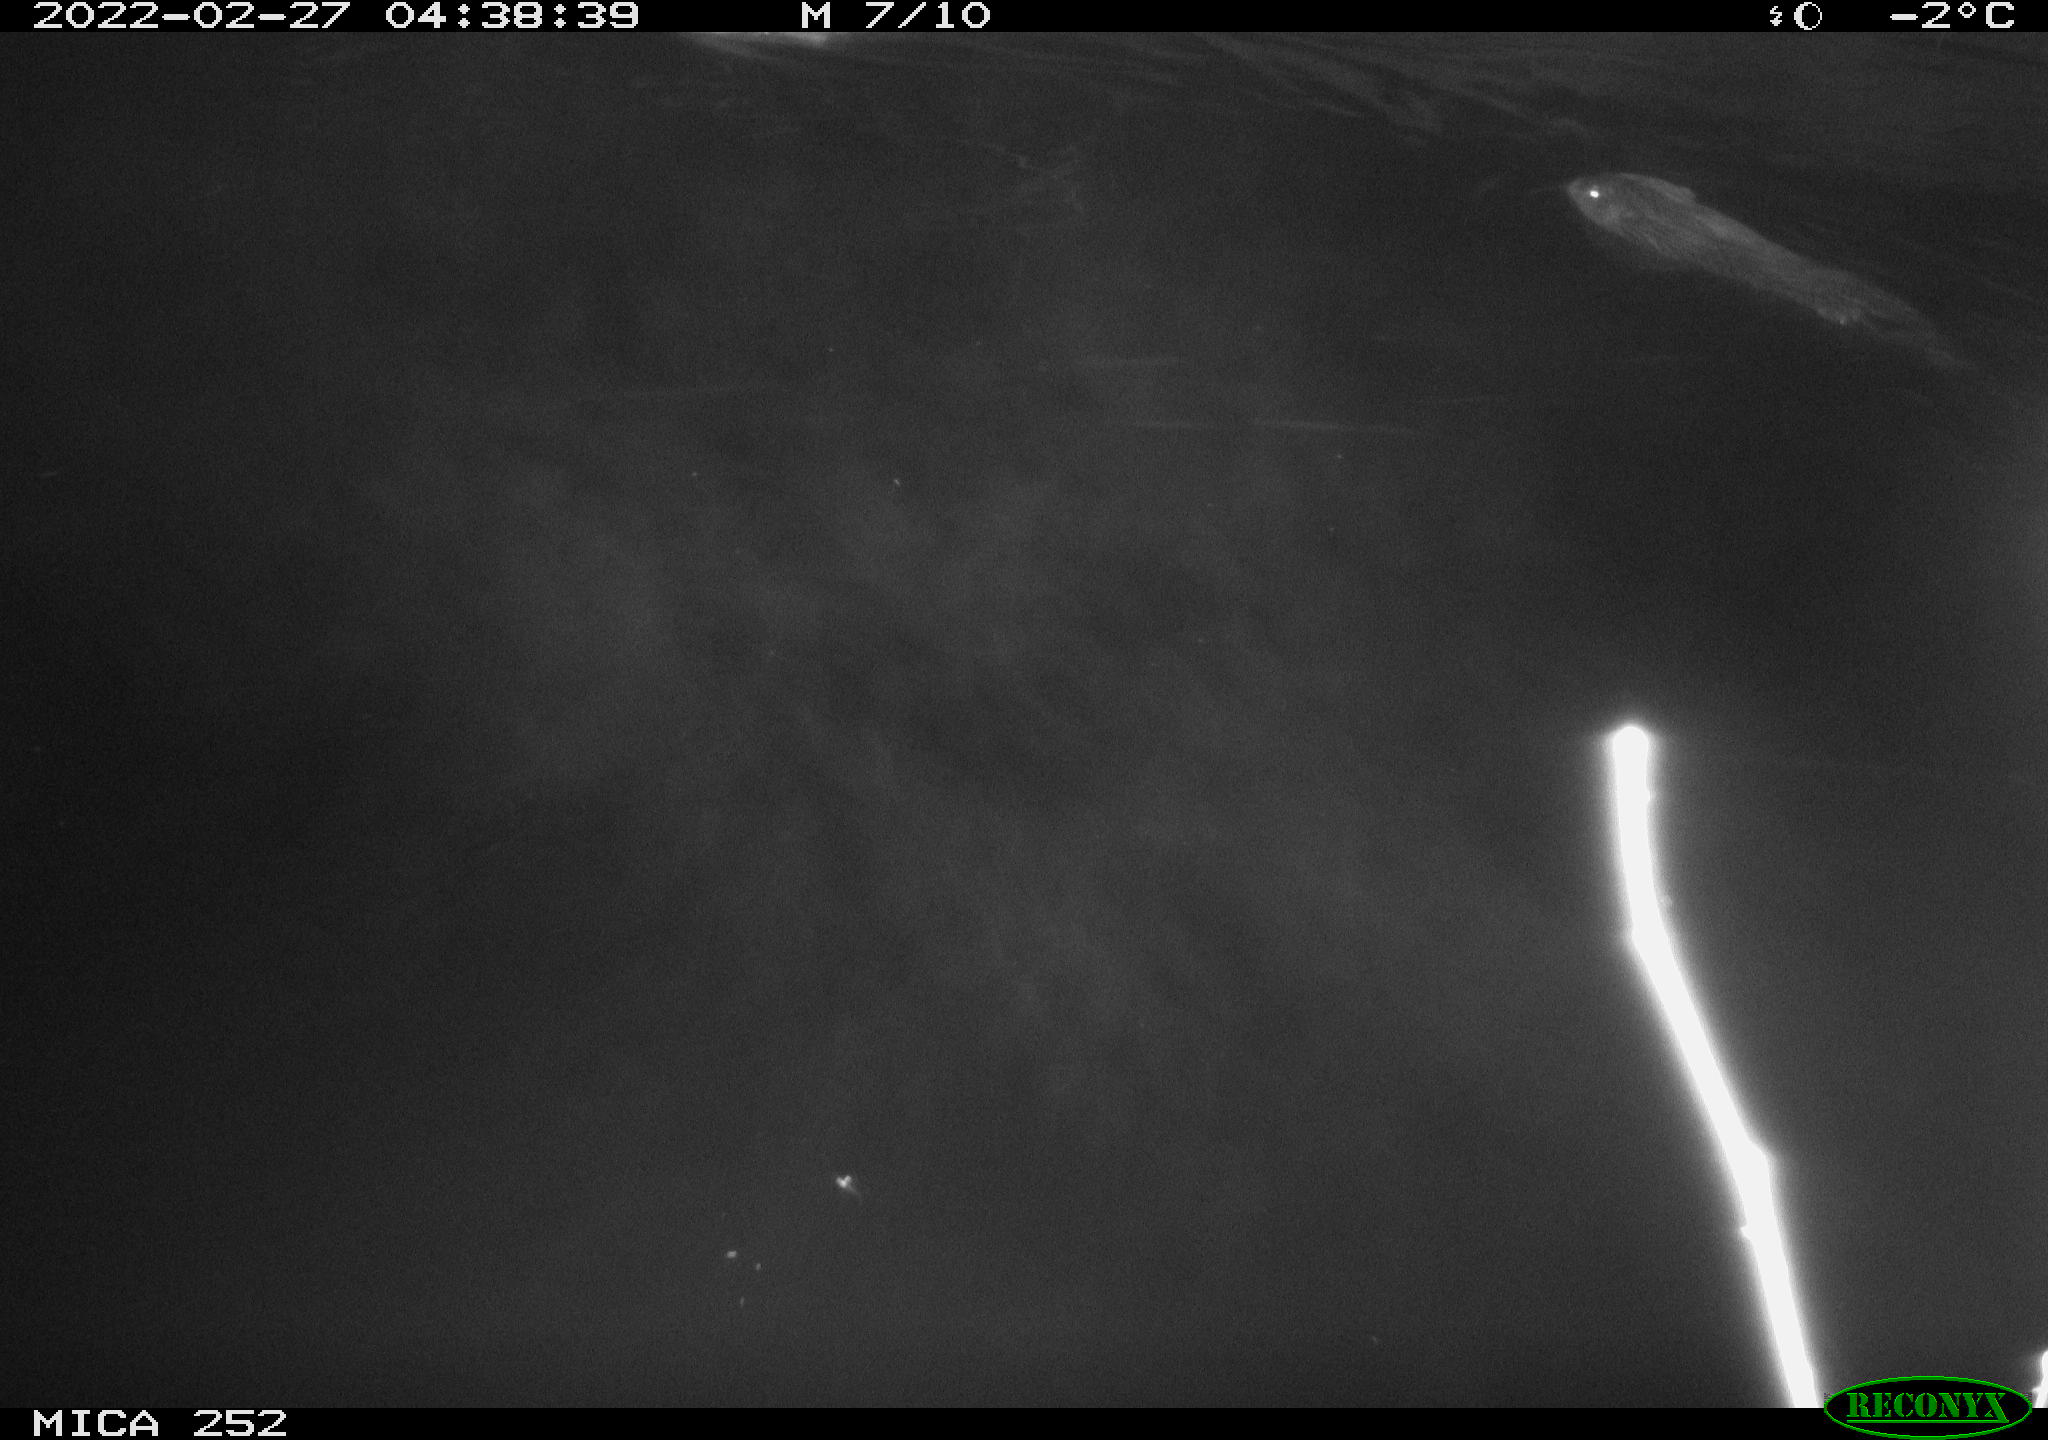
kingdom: Animalia
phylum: Chordata
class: Mammalia
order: Rodentia
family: Castoridae
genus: Castor
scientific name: Castor fiber
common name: Eurasian beaver
